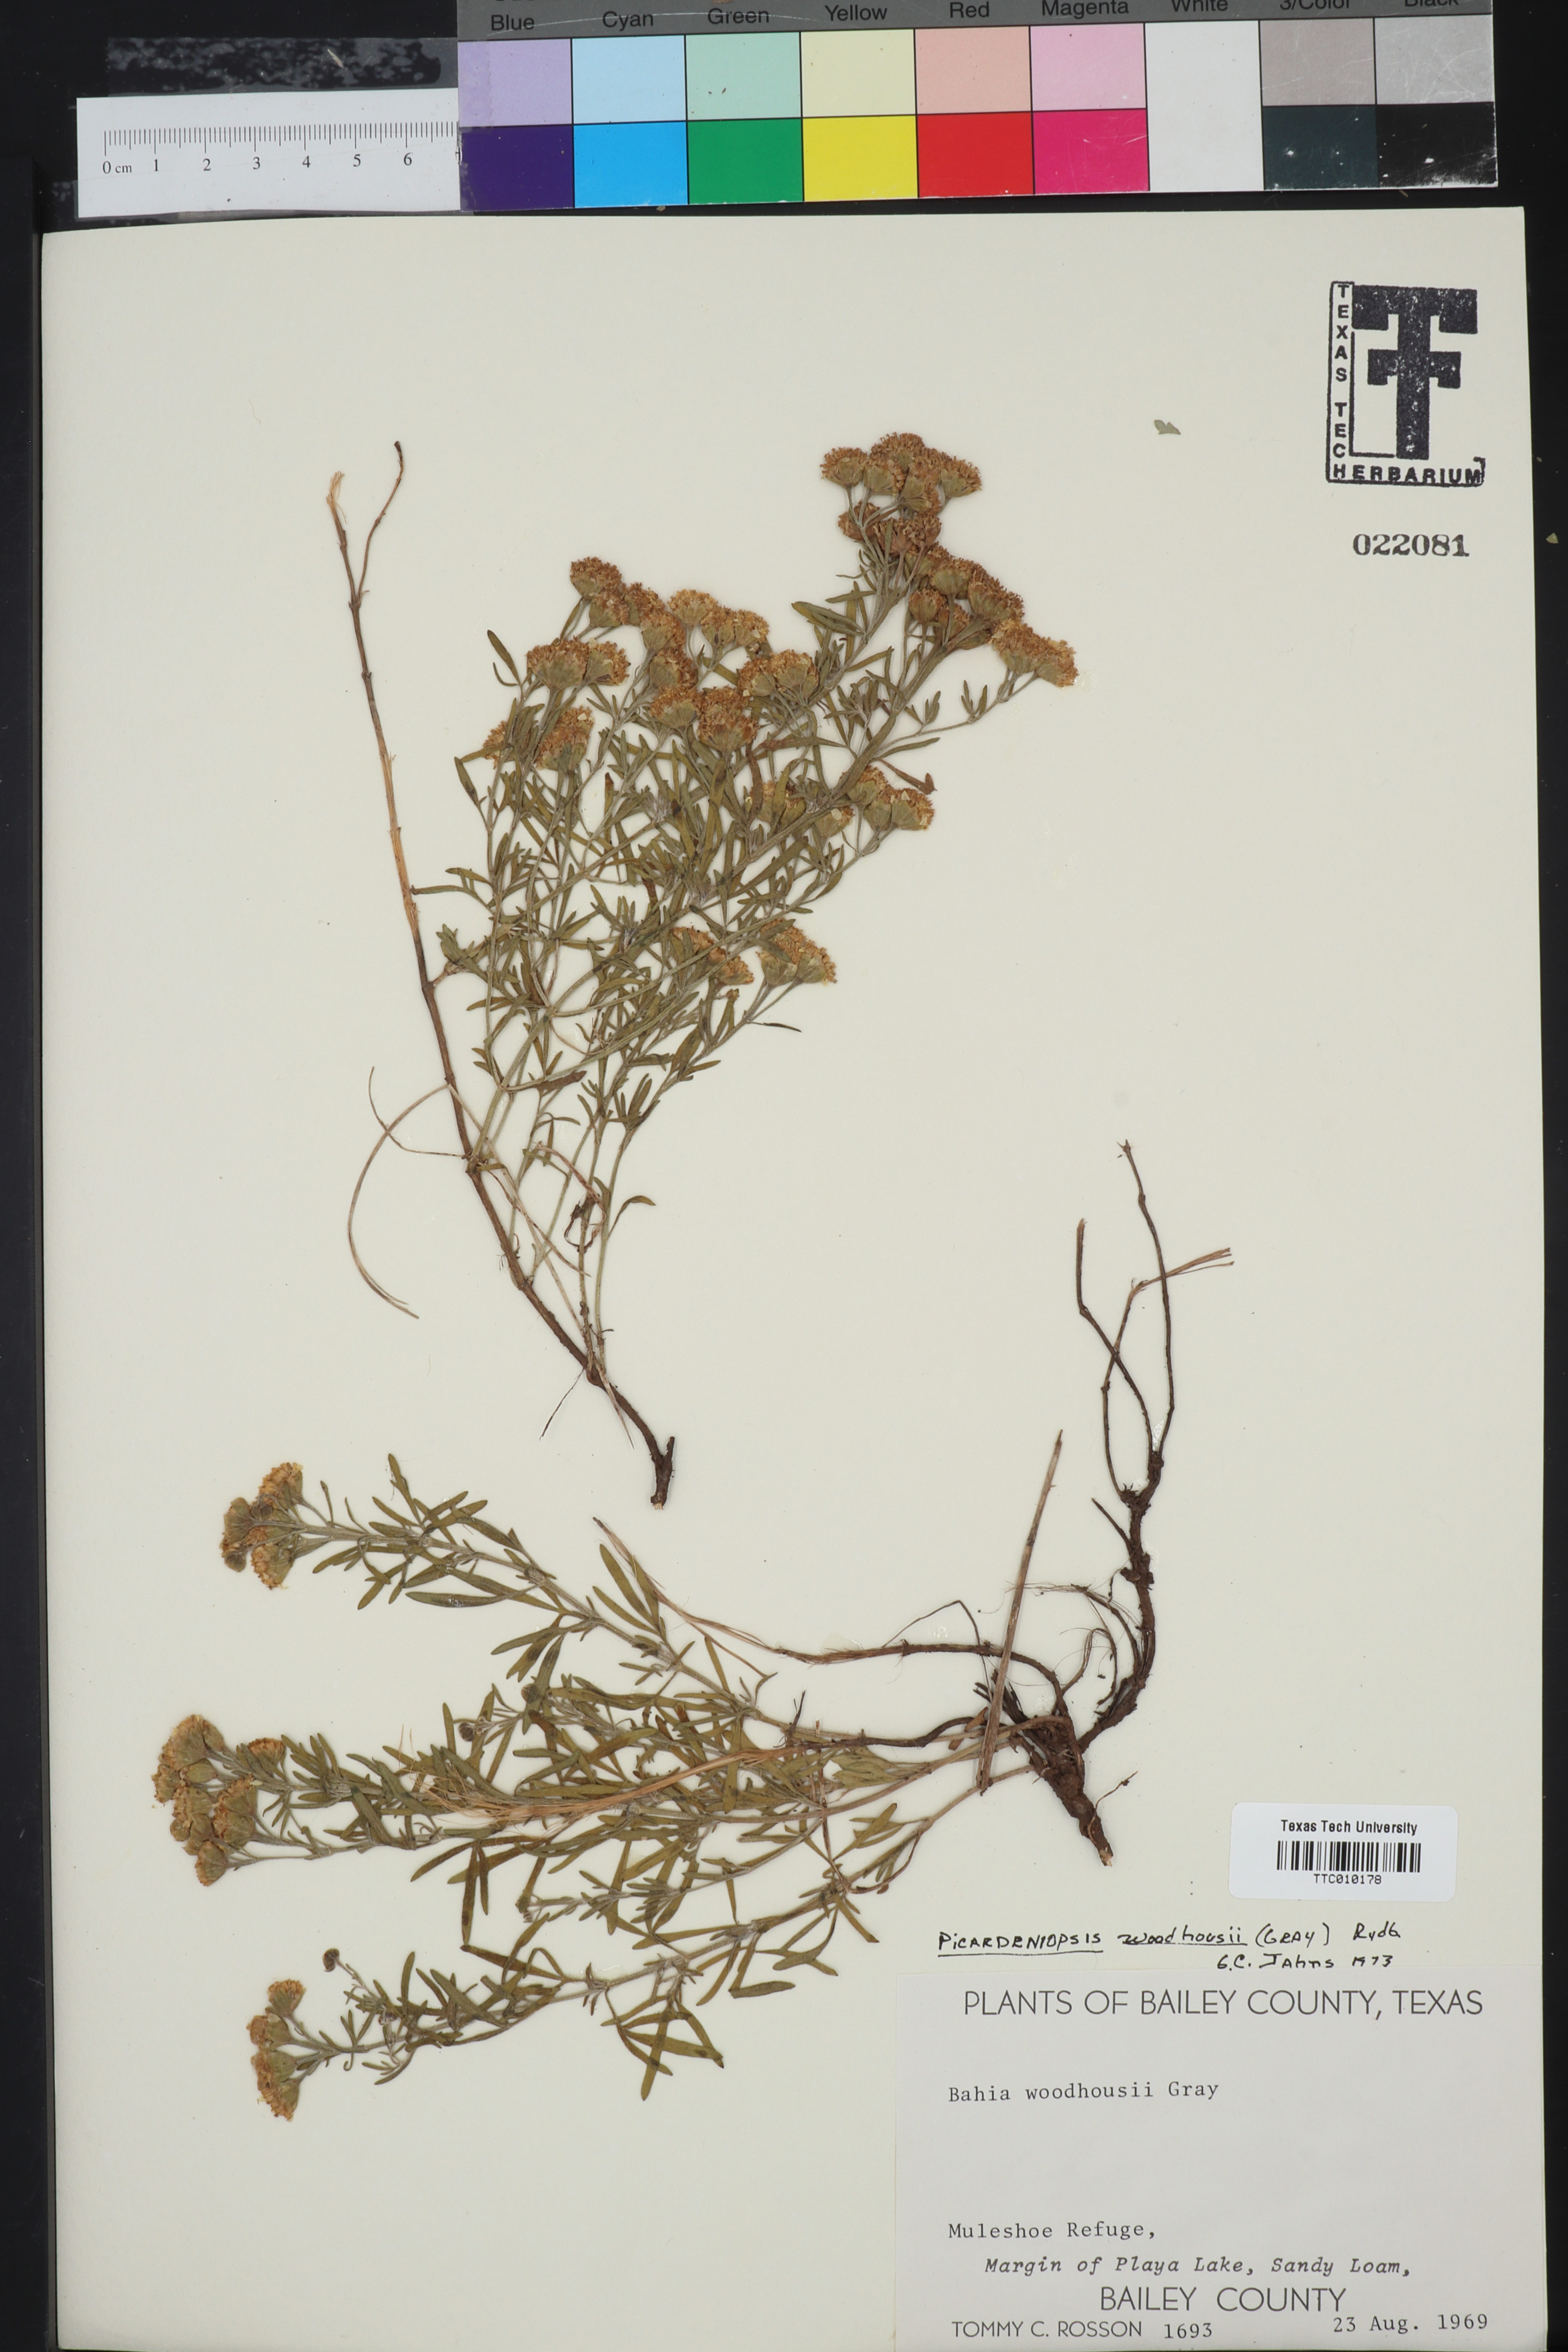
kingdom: Plantae
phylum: Tracheophyta
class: Magnoliopsida
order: Asterales
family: Asteraceae
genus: Picradeniopsis
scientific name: Picradeniopsis woodhousei
